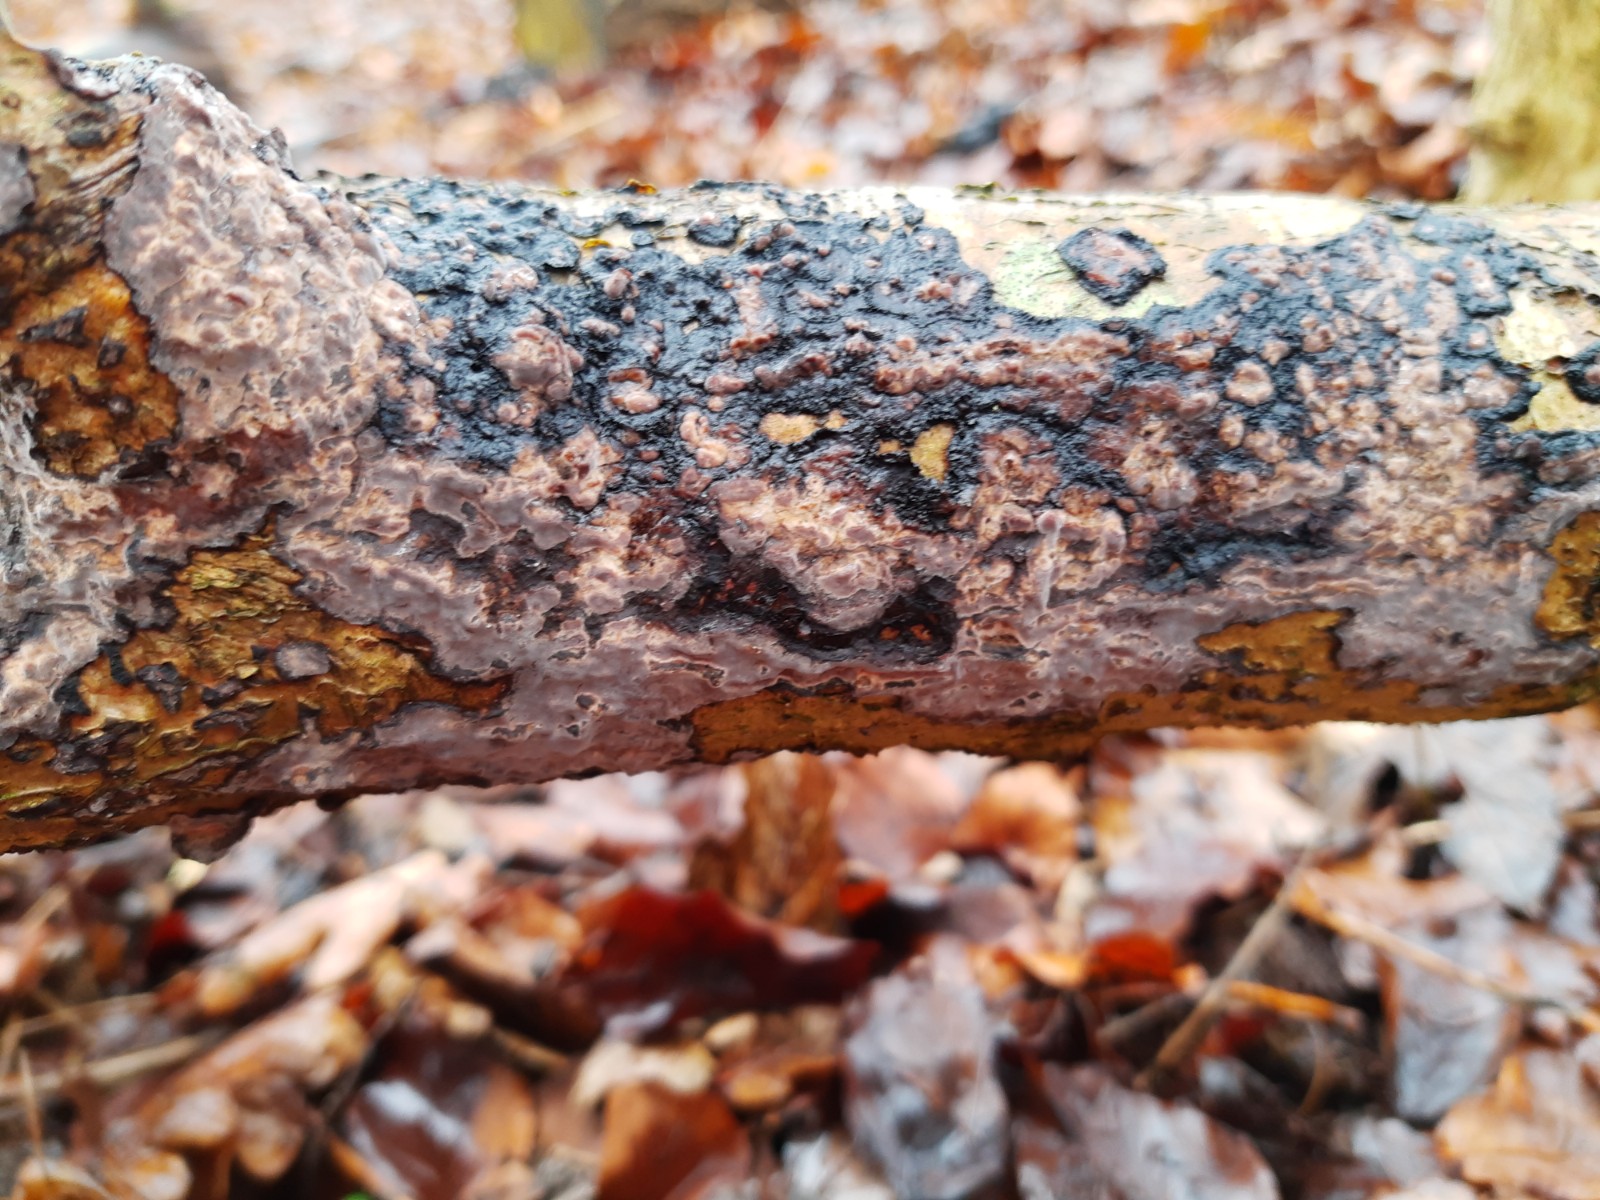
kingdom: Fungi
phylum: Basidiomycota
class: Agaricomycetes
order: Russulales
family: Peniophoraceae
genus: Peniophora
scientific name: Peniophora limitata
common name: mørkrandet voksskind
